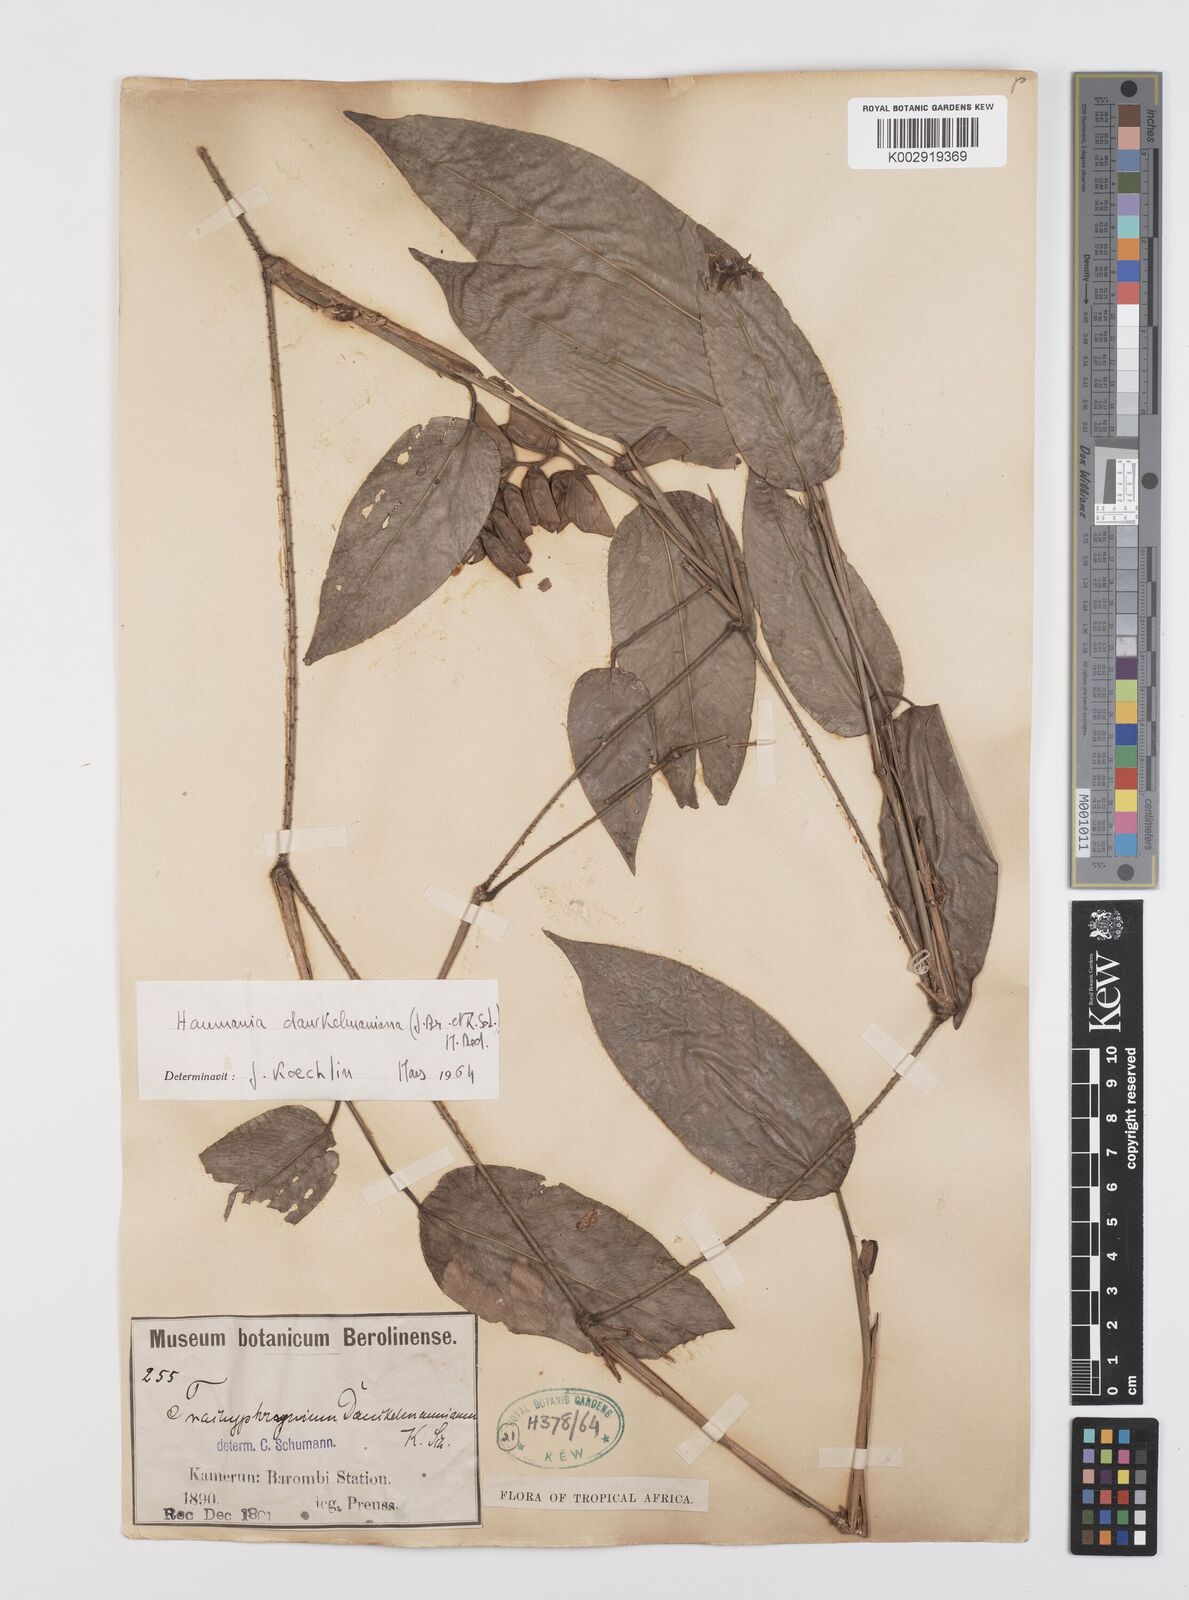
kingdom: Plantae
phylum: Tracheophyta
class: Liliopsida
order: Zingiberales
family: Marantaceae
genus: Haumania
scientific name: Haumania danckelmaniana
